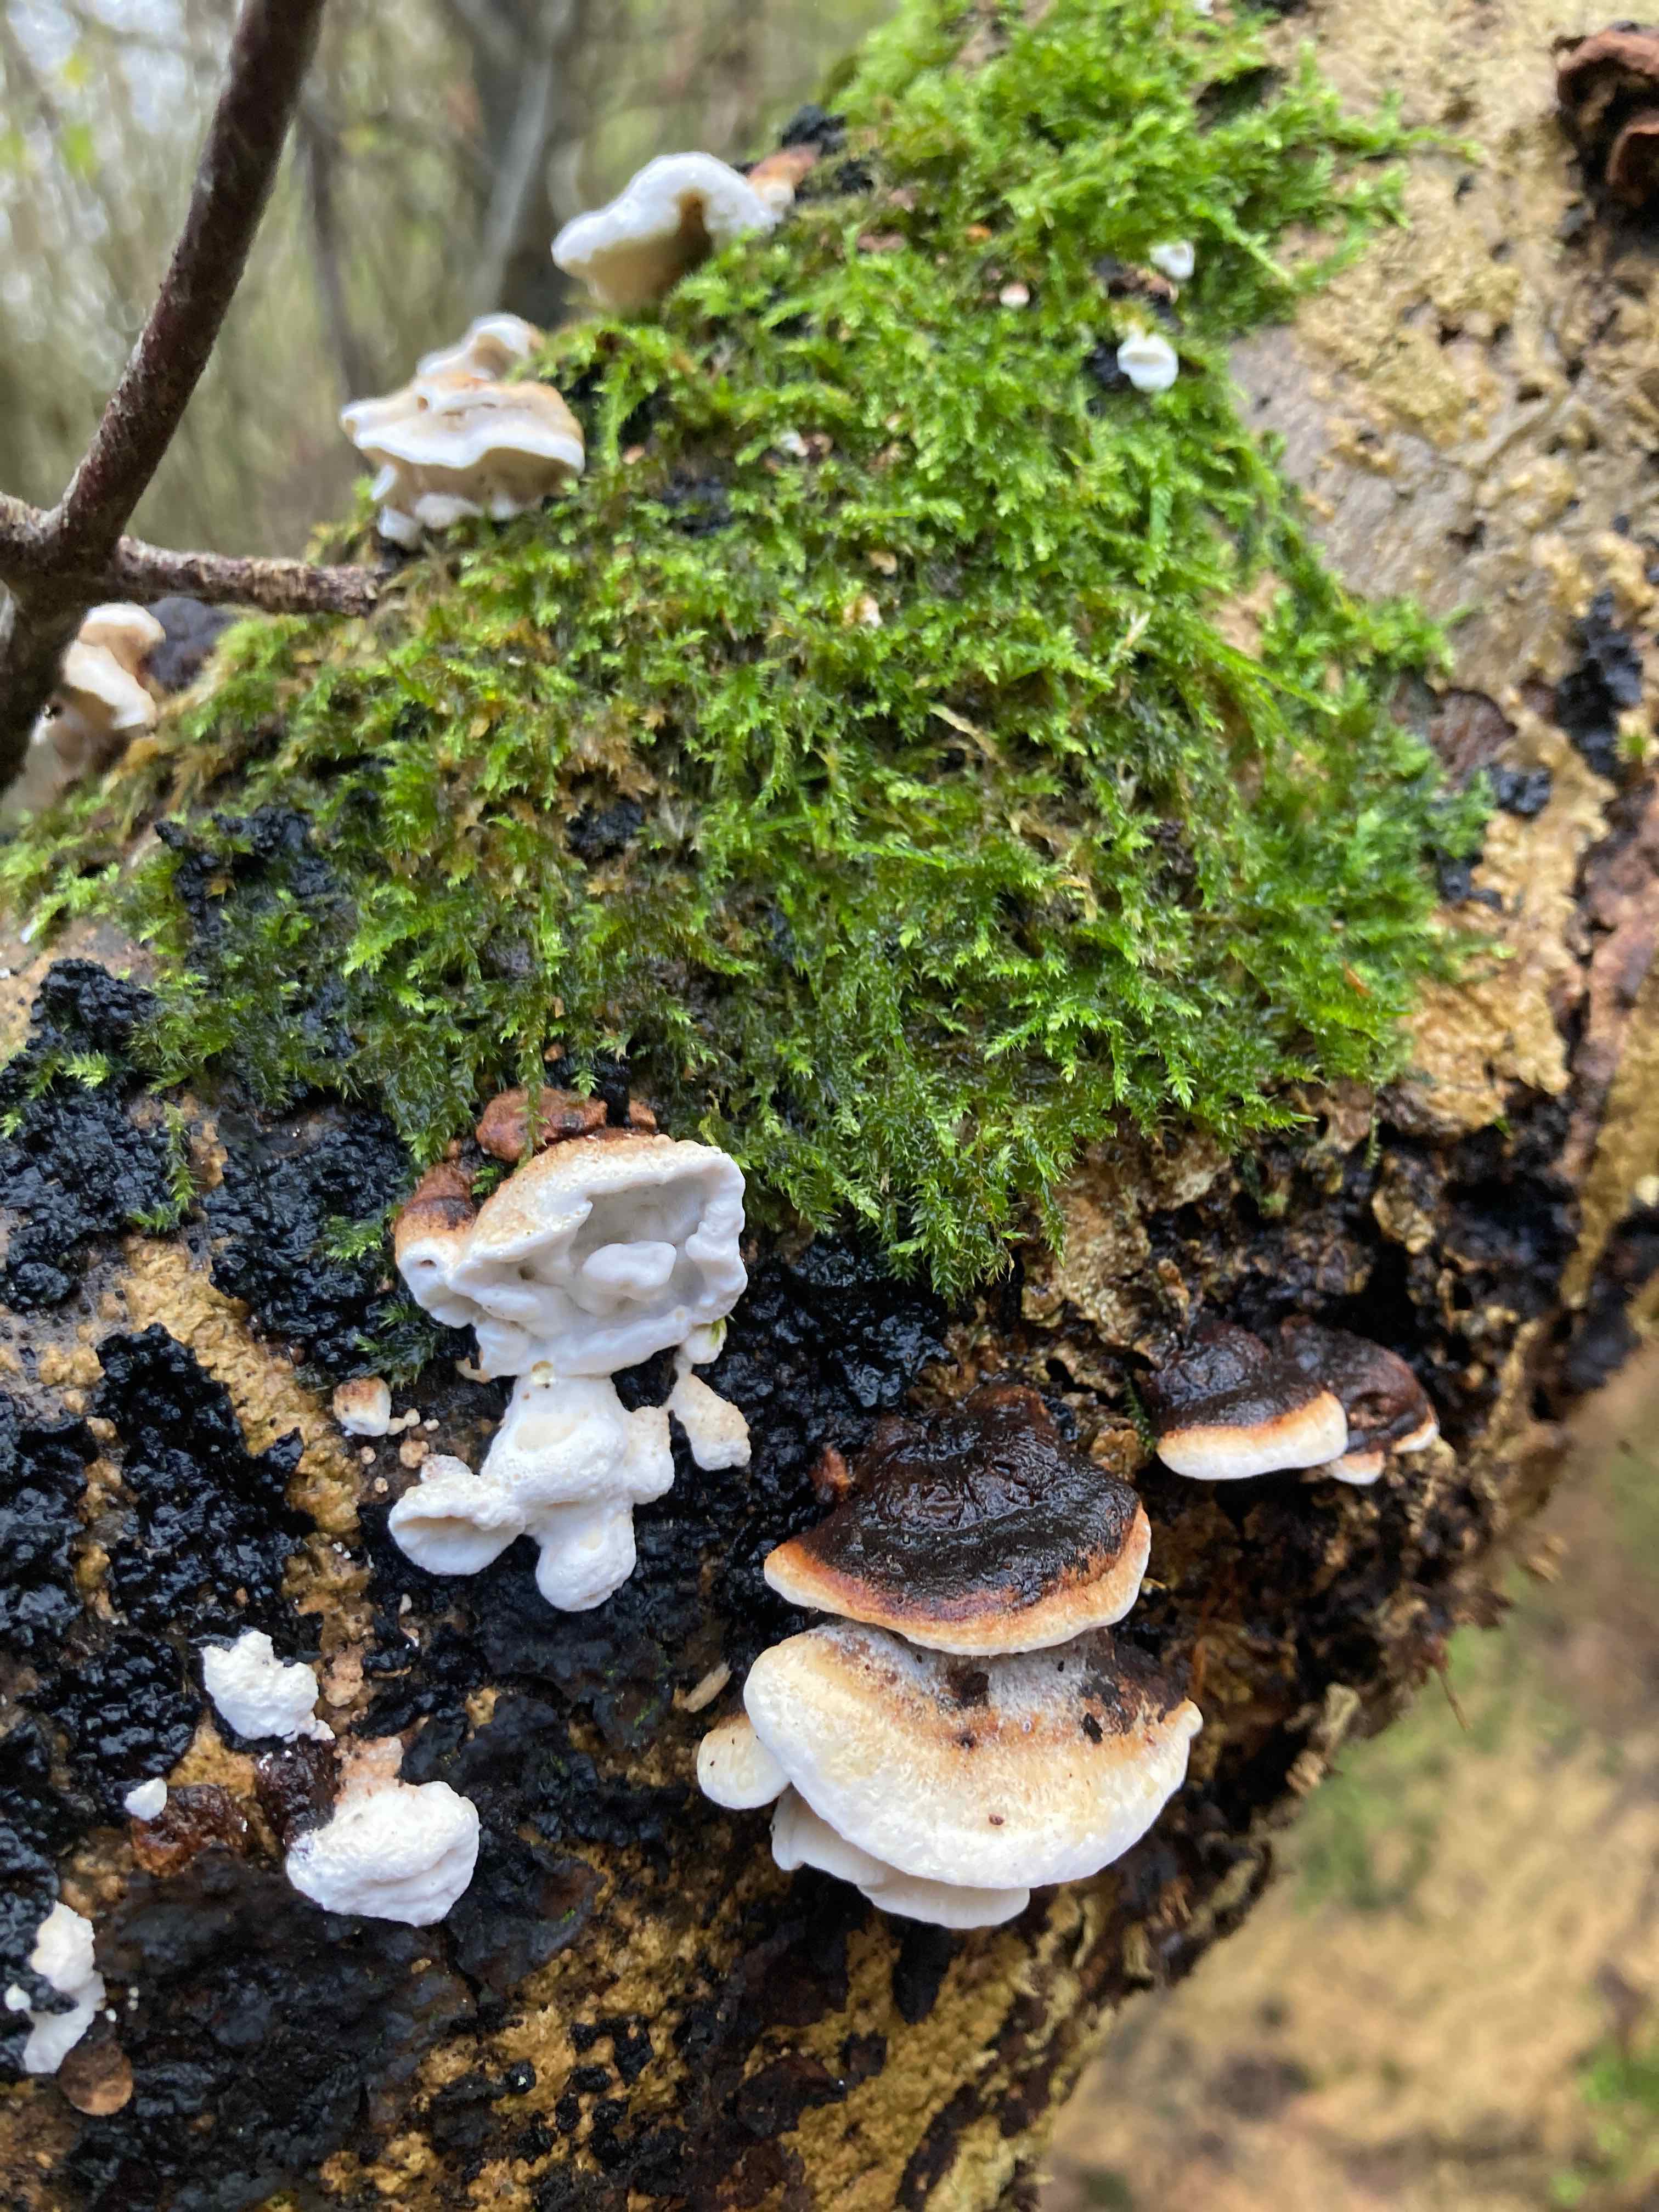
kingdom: Fungi
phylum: Basidiomycota
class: Agaricomycetes
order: Polyporales
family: Incrustoporiaceae
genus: Skeletocutis
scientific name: Skeletocutis nemoralis
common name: stor krystalporesvamp
